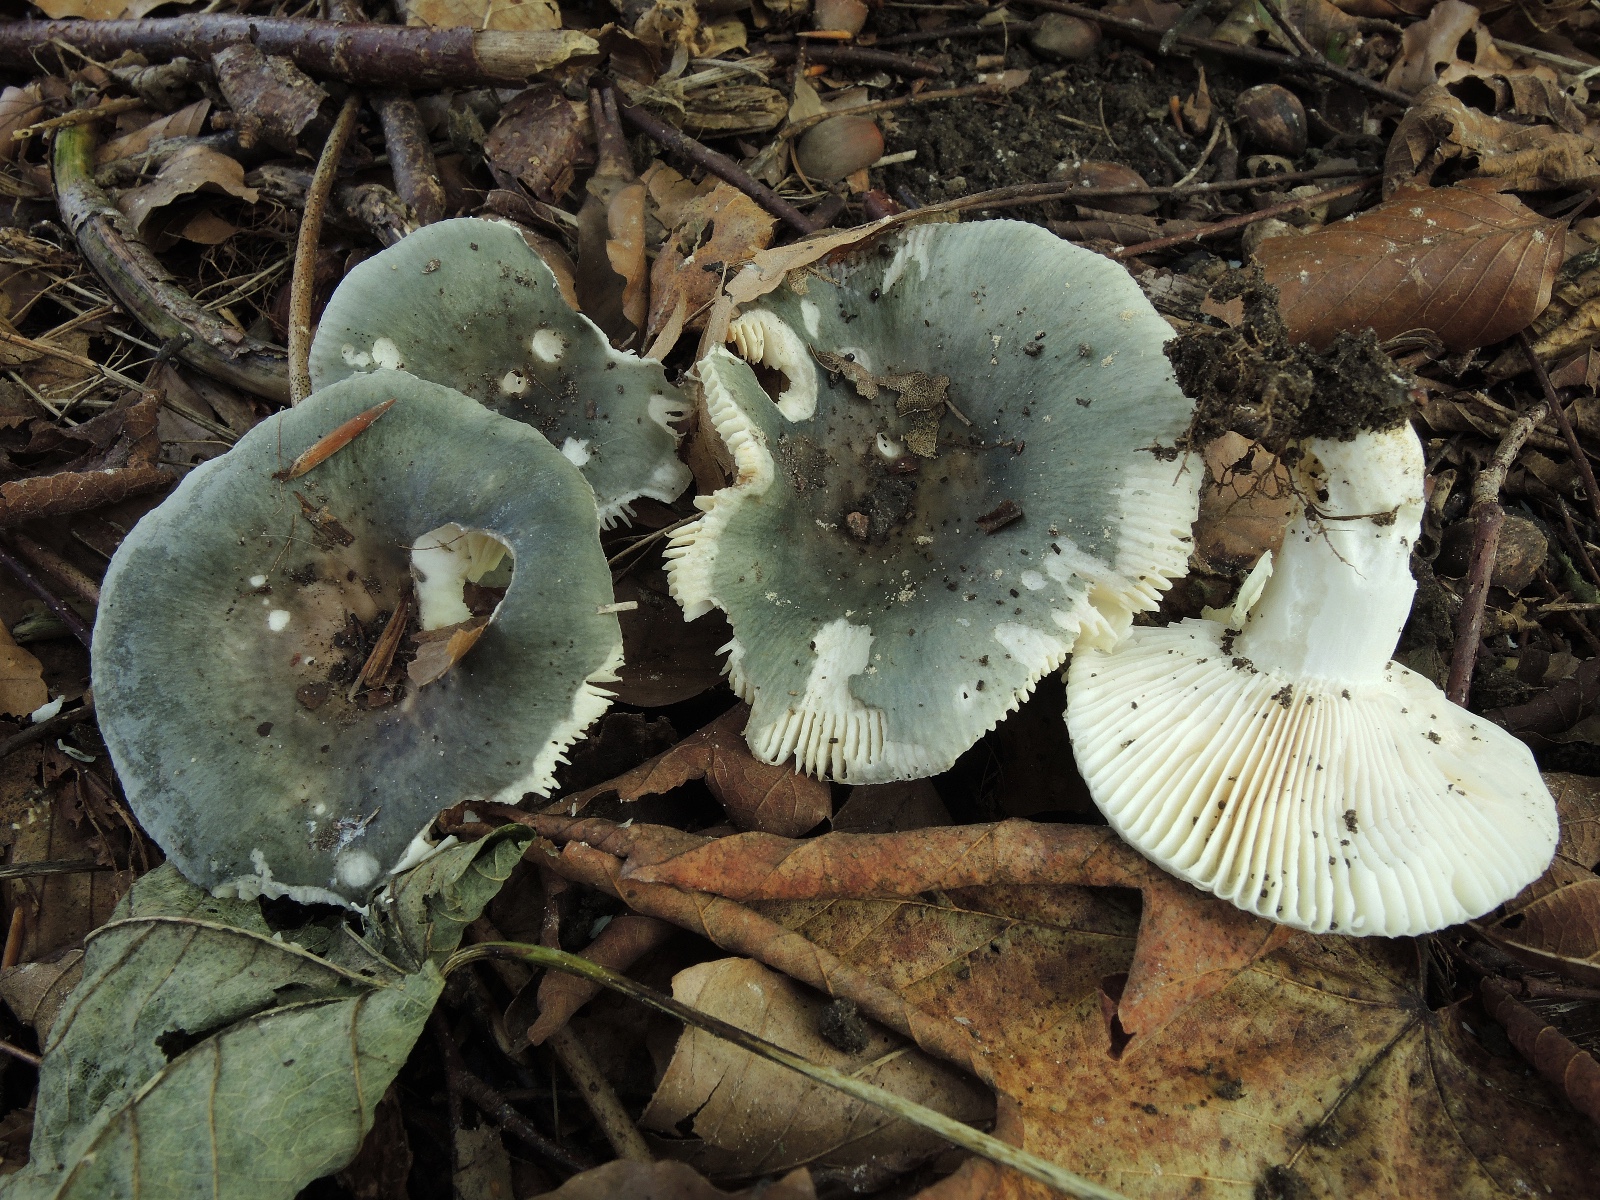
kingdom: Fungi
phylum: Basidiomycota
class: Agaricomycetes
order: Russulales
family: Russulaceae
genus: Russula
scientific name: Russula parazurea
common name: blågrå skørhat
